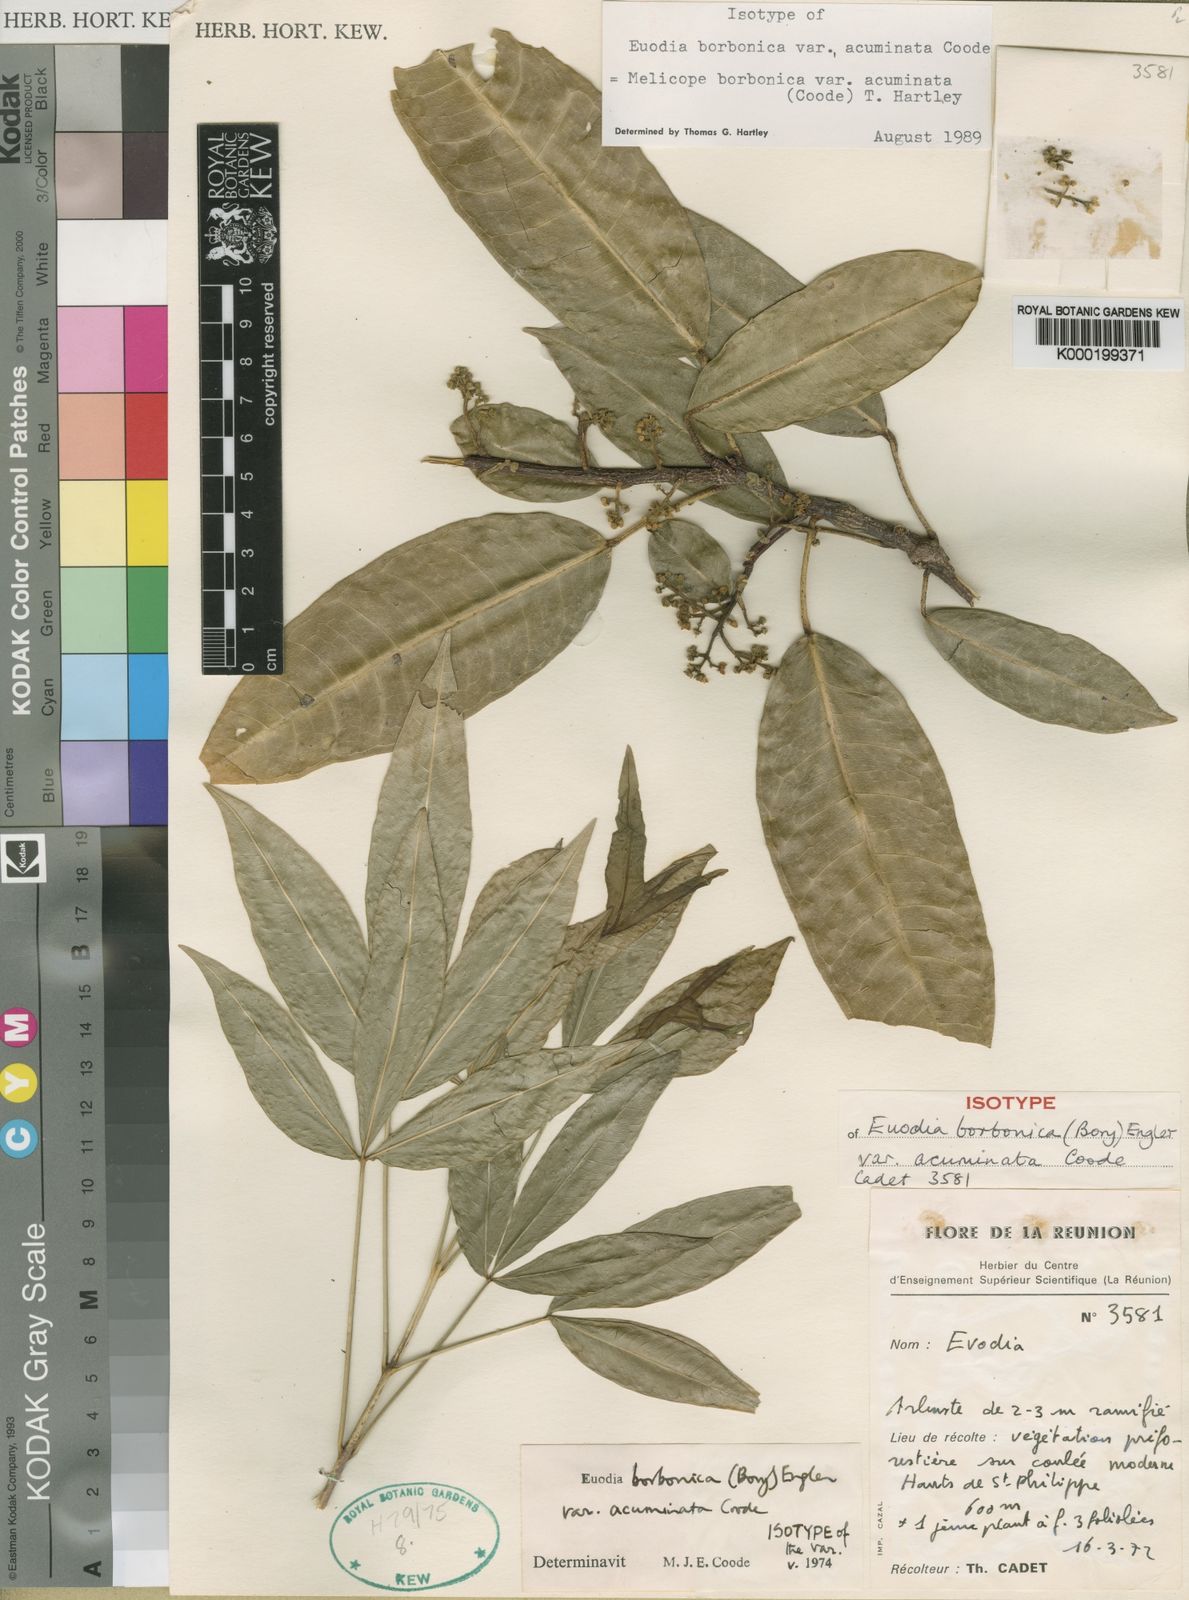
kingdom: Plantae
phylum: Tracheophyta
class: Magnoliopsida
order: Sapindales
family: Rutaceae
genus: Melicope
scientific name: Melicope borbonica
